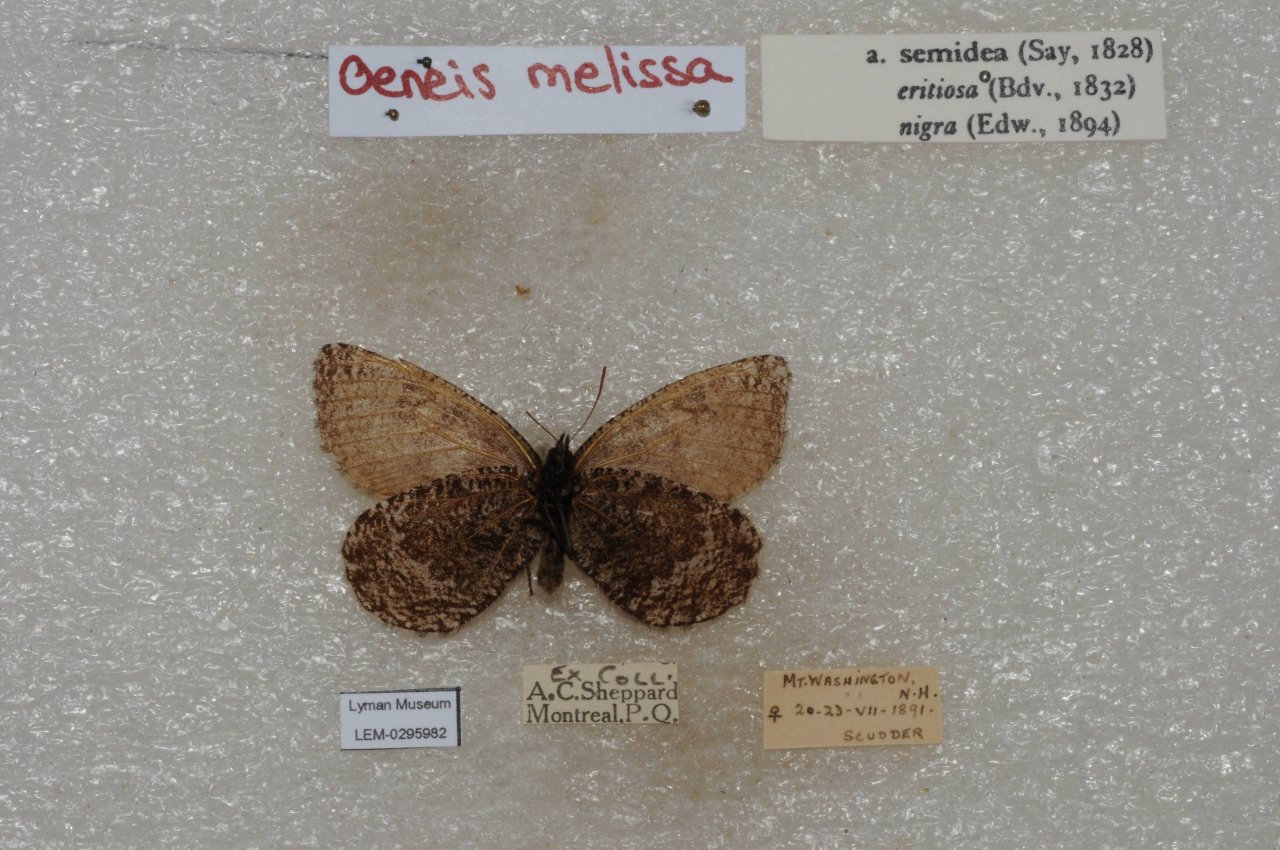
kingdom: Animalia
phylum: Arthropoda
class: Insecta
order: Lepidoptera
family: Nymphalidae
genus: Oeneis
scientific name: Oeneis melissa
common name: Melissa Arctic
